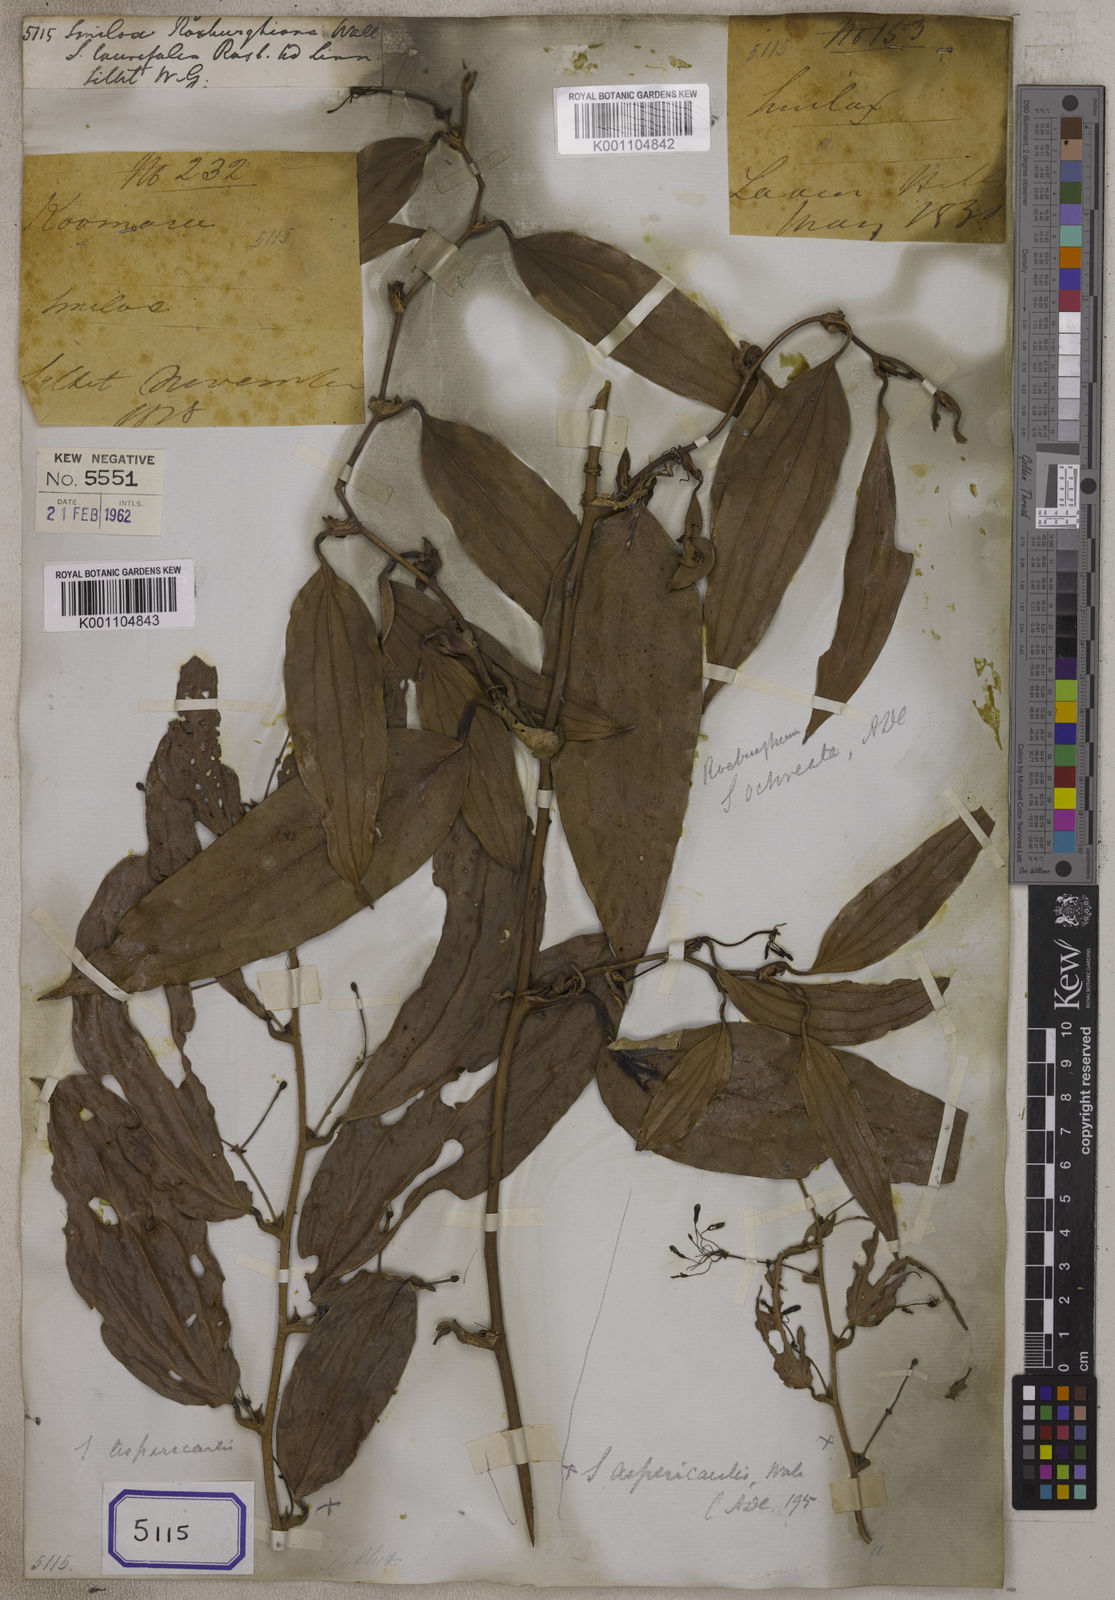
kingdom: Plantae
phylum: Tracheophyta
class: Liliopsida
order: Liliales
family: Smilacaceae
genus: Smilax
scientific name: Smilax
